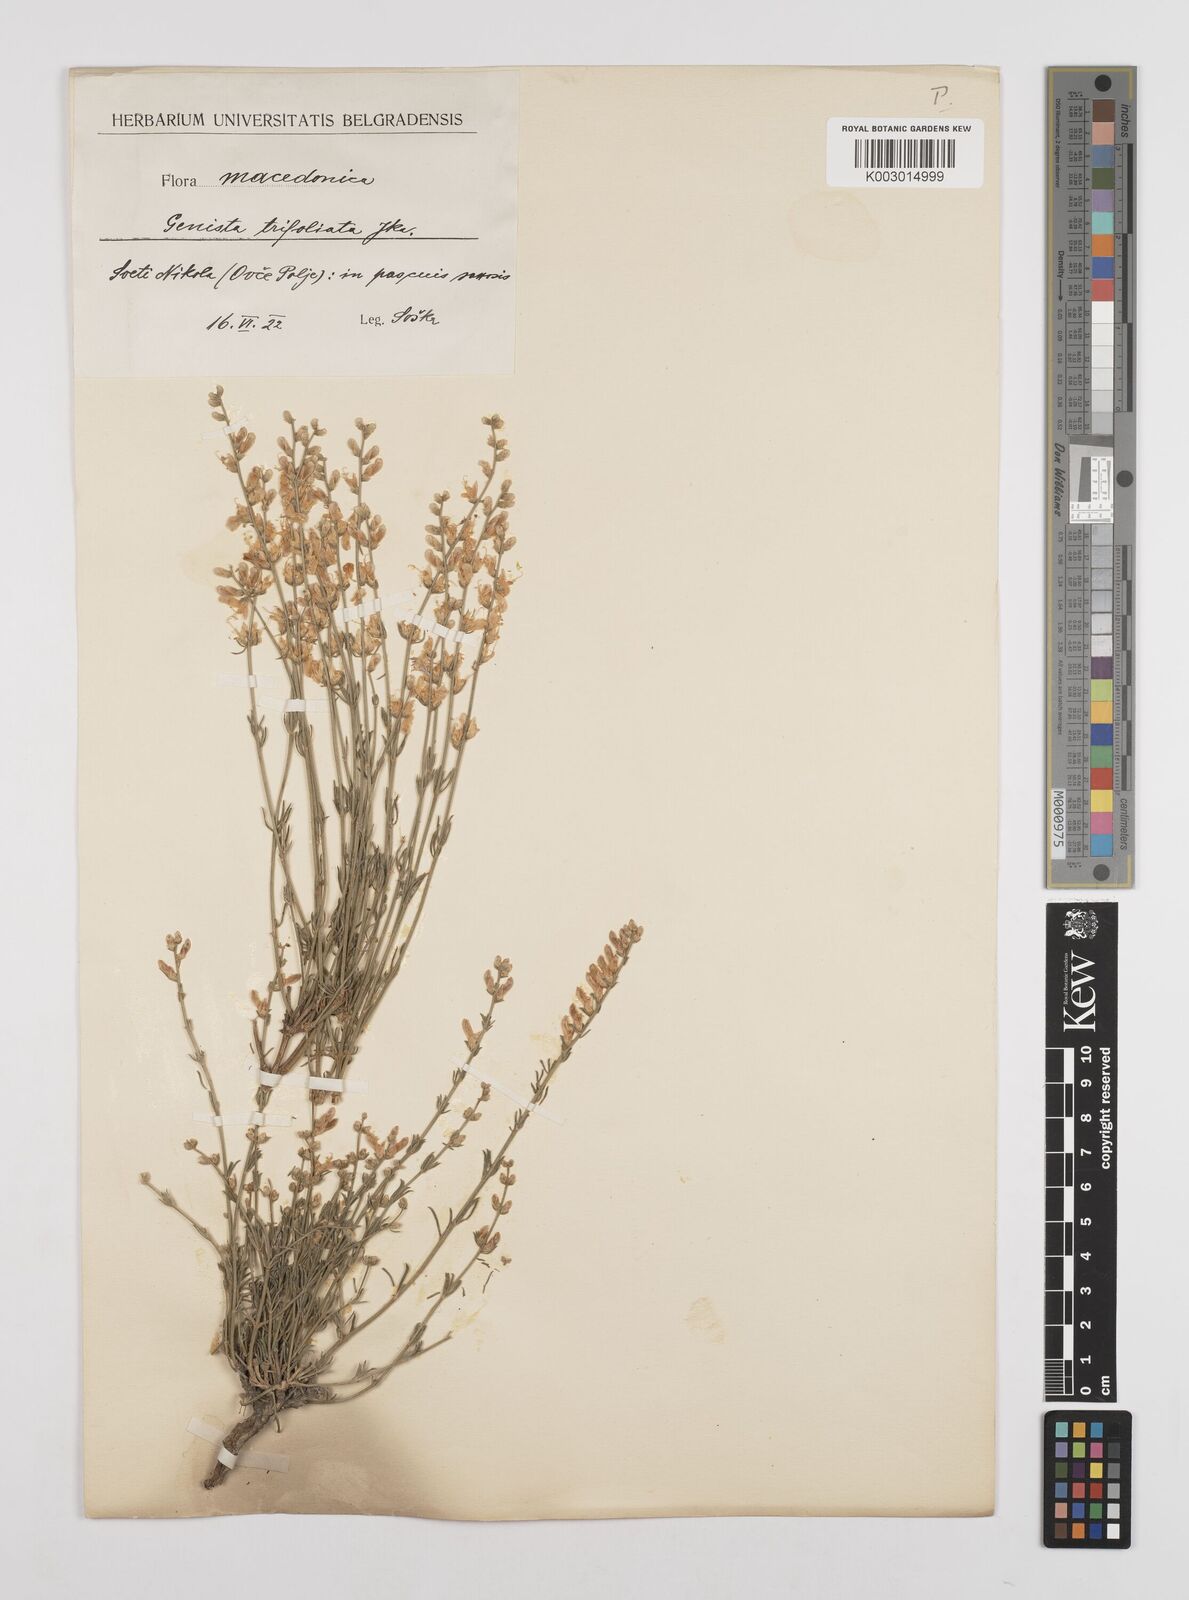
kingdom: Plantae
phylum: Tracheophyta
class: Magnoliopsida
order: Fabales
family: Fabaceae
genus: Genista
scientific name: Genista sessilifolia
